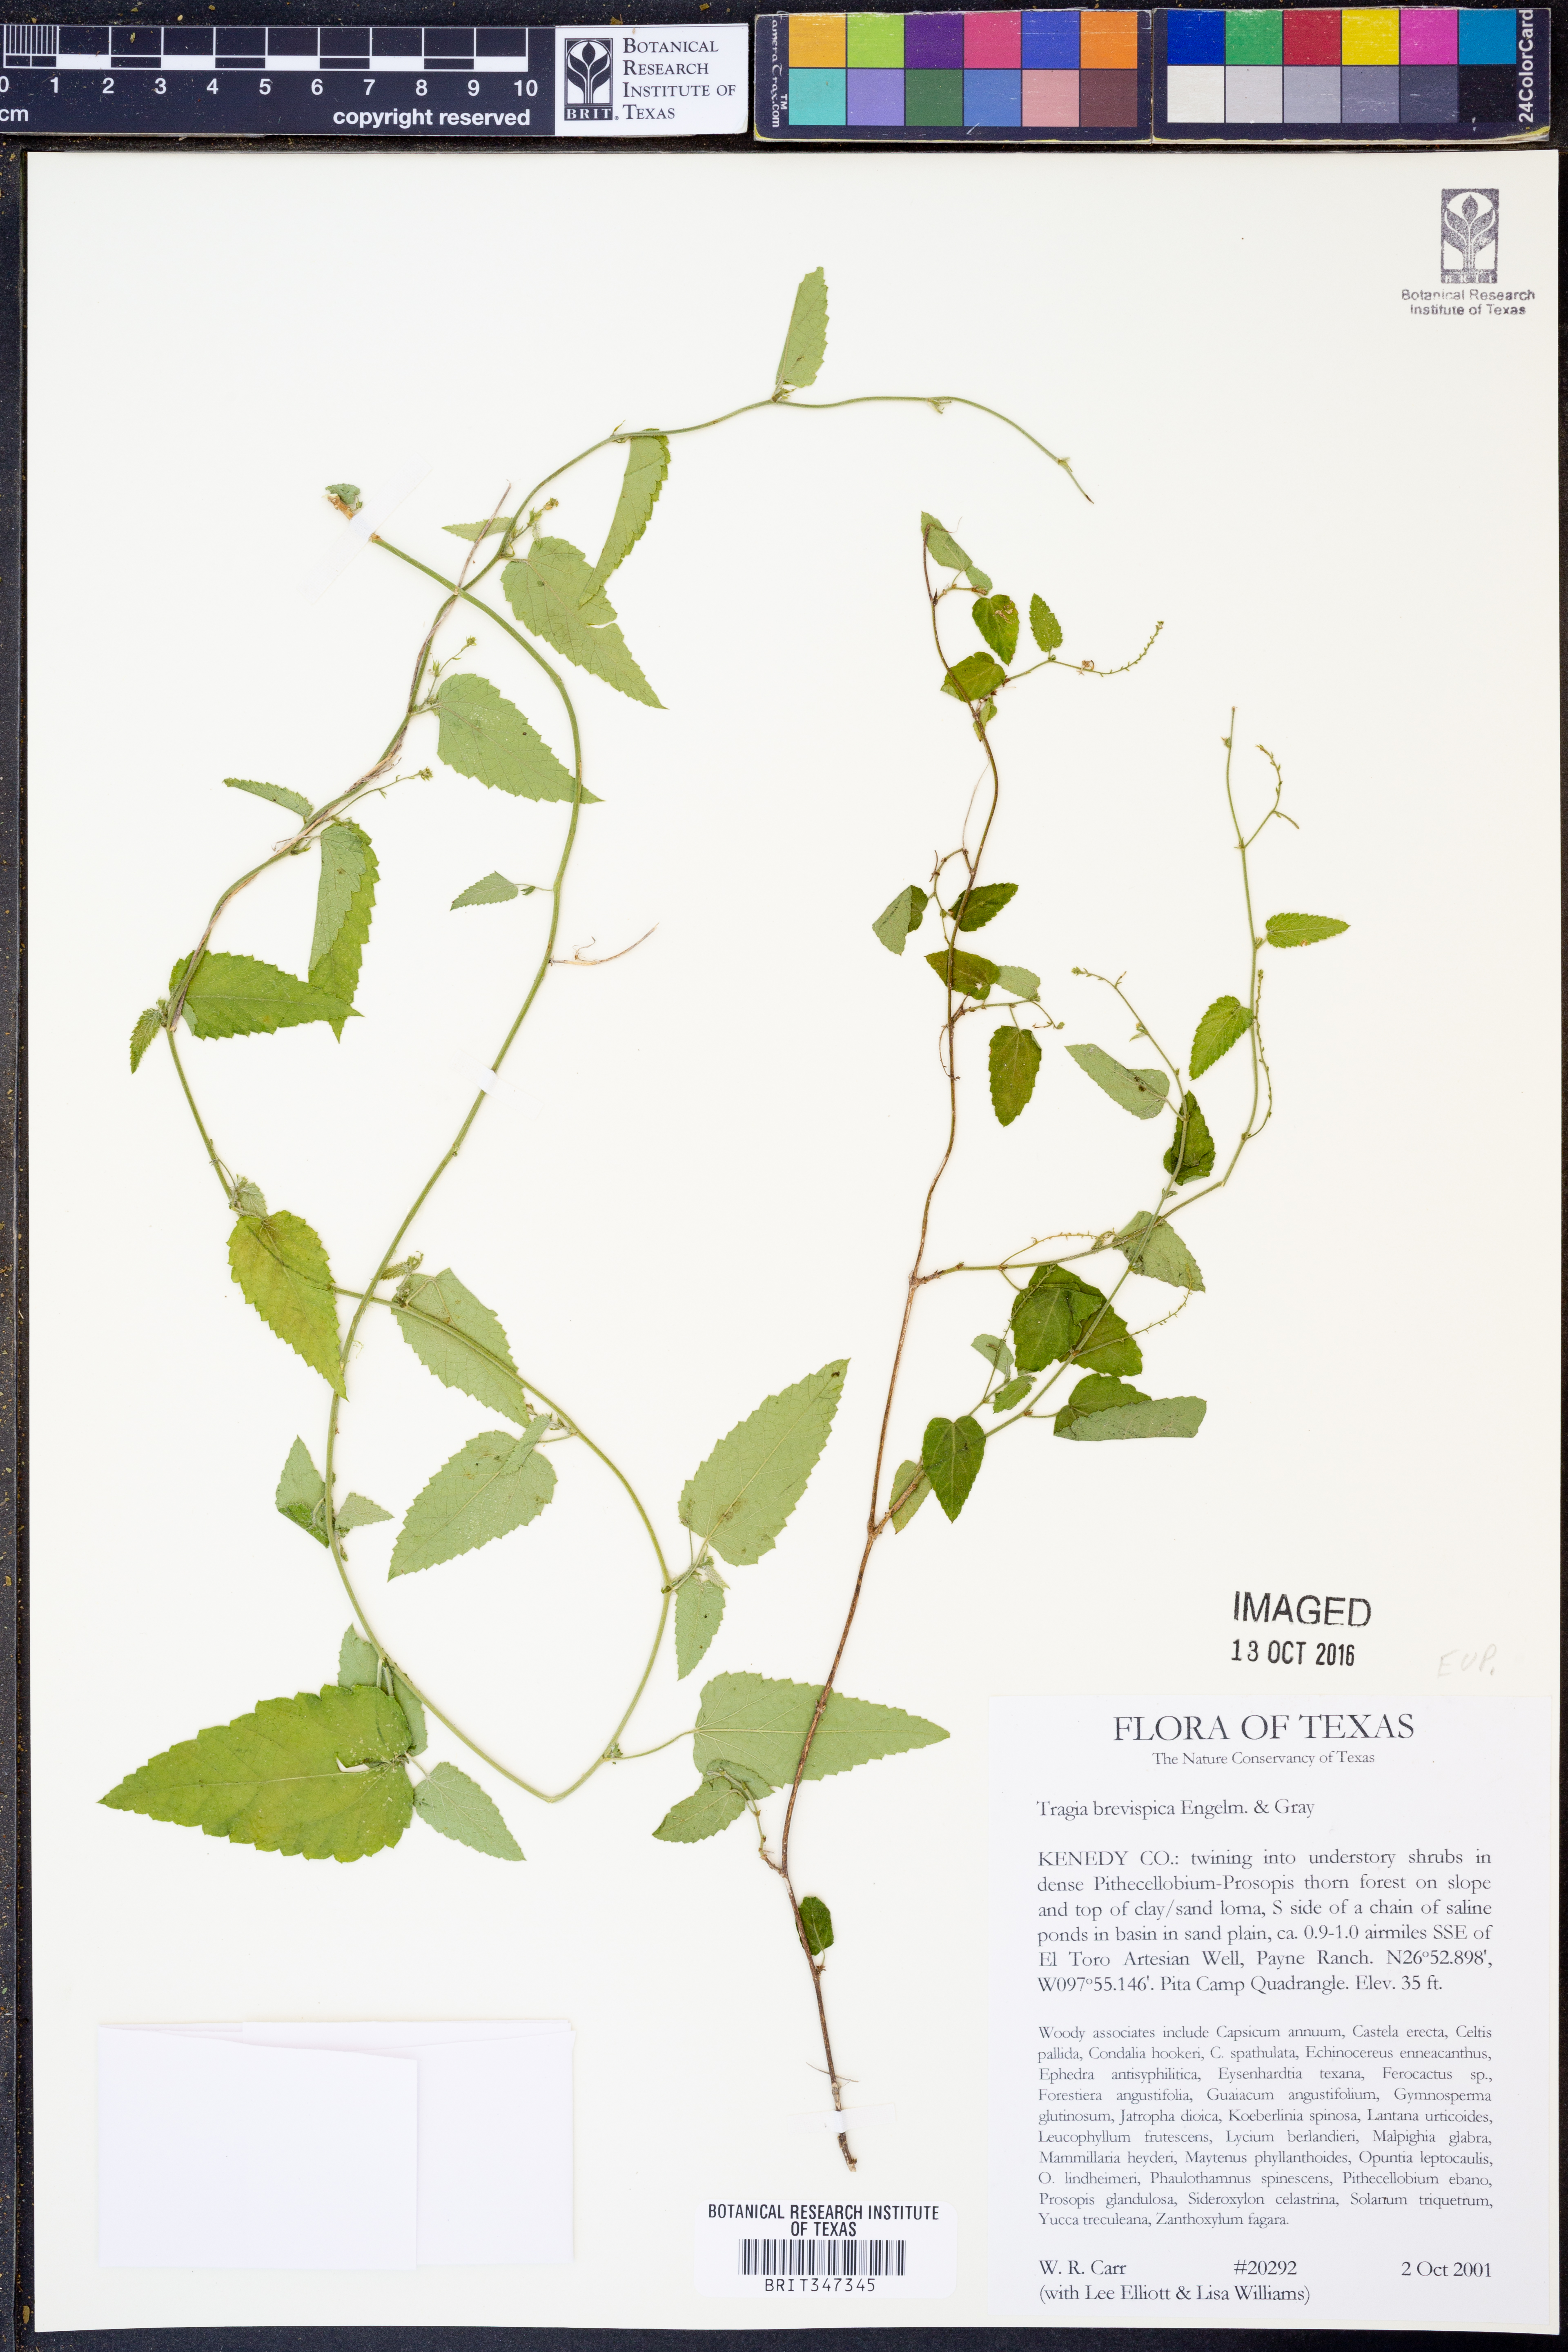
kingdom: Plantae
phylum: Tracheophyta
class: Magnoliopsida
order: Malpighiales
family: Euphorbiaceae
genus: Tragia
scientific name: Tragia brevispica
